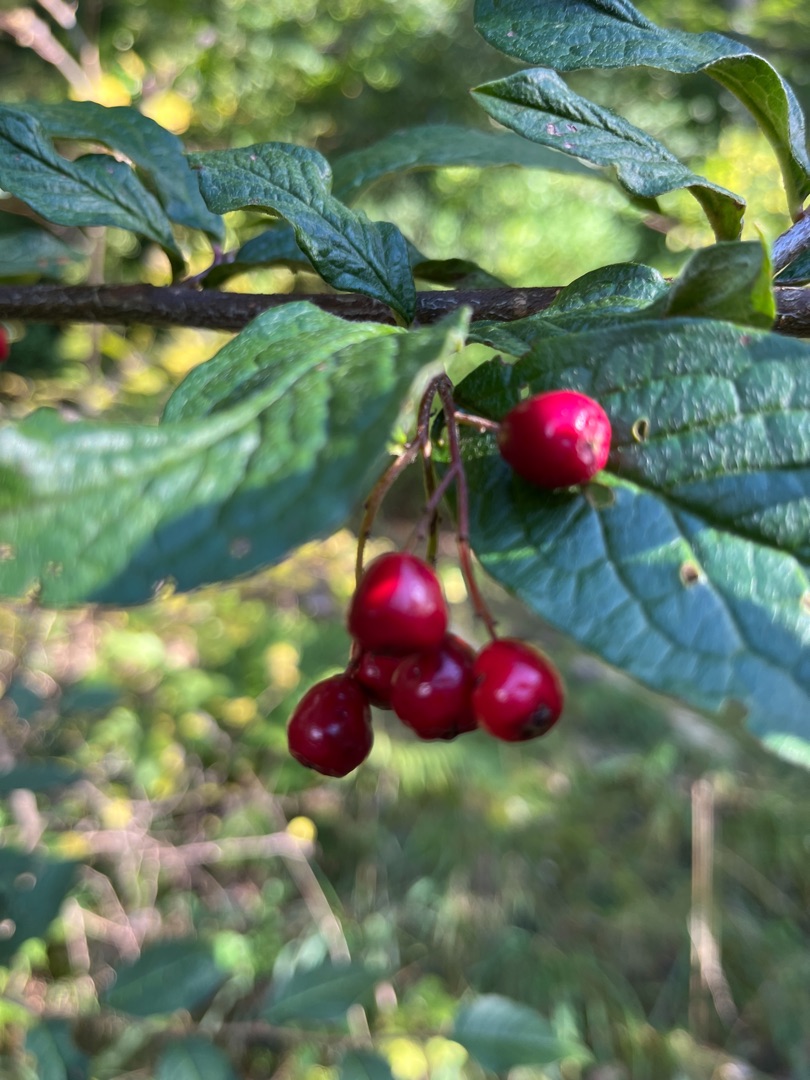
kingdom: Plantae
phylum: Tracheophyta
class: Magnoliopsida
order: Rosales
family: Rosaceae
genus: Cotoneaster
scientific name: Cotoneaster bullatus
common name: Buklet dværgmispel
